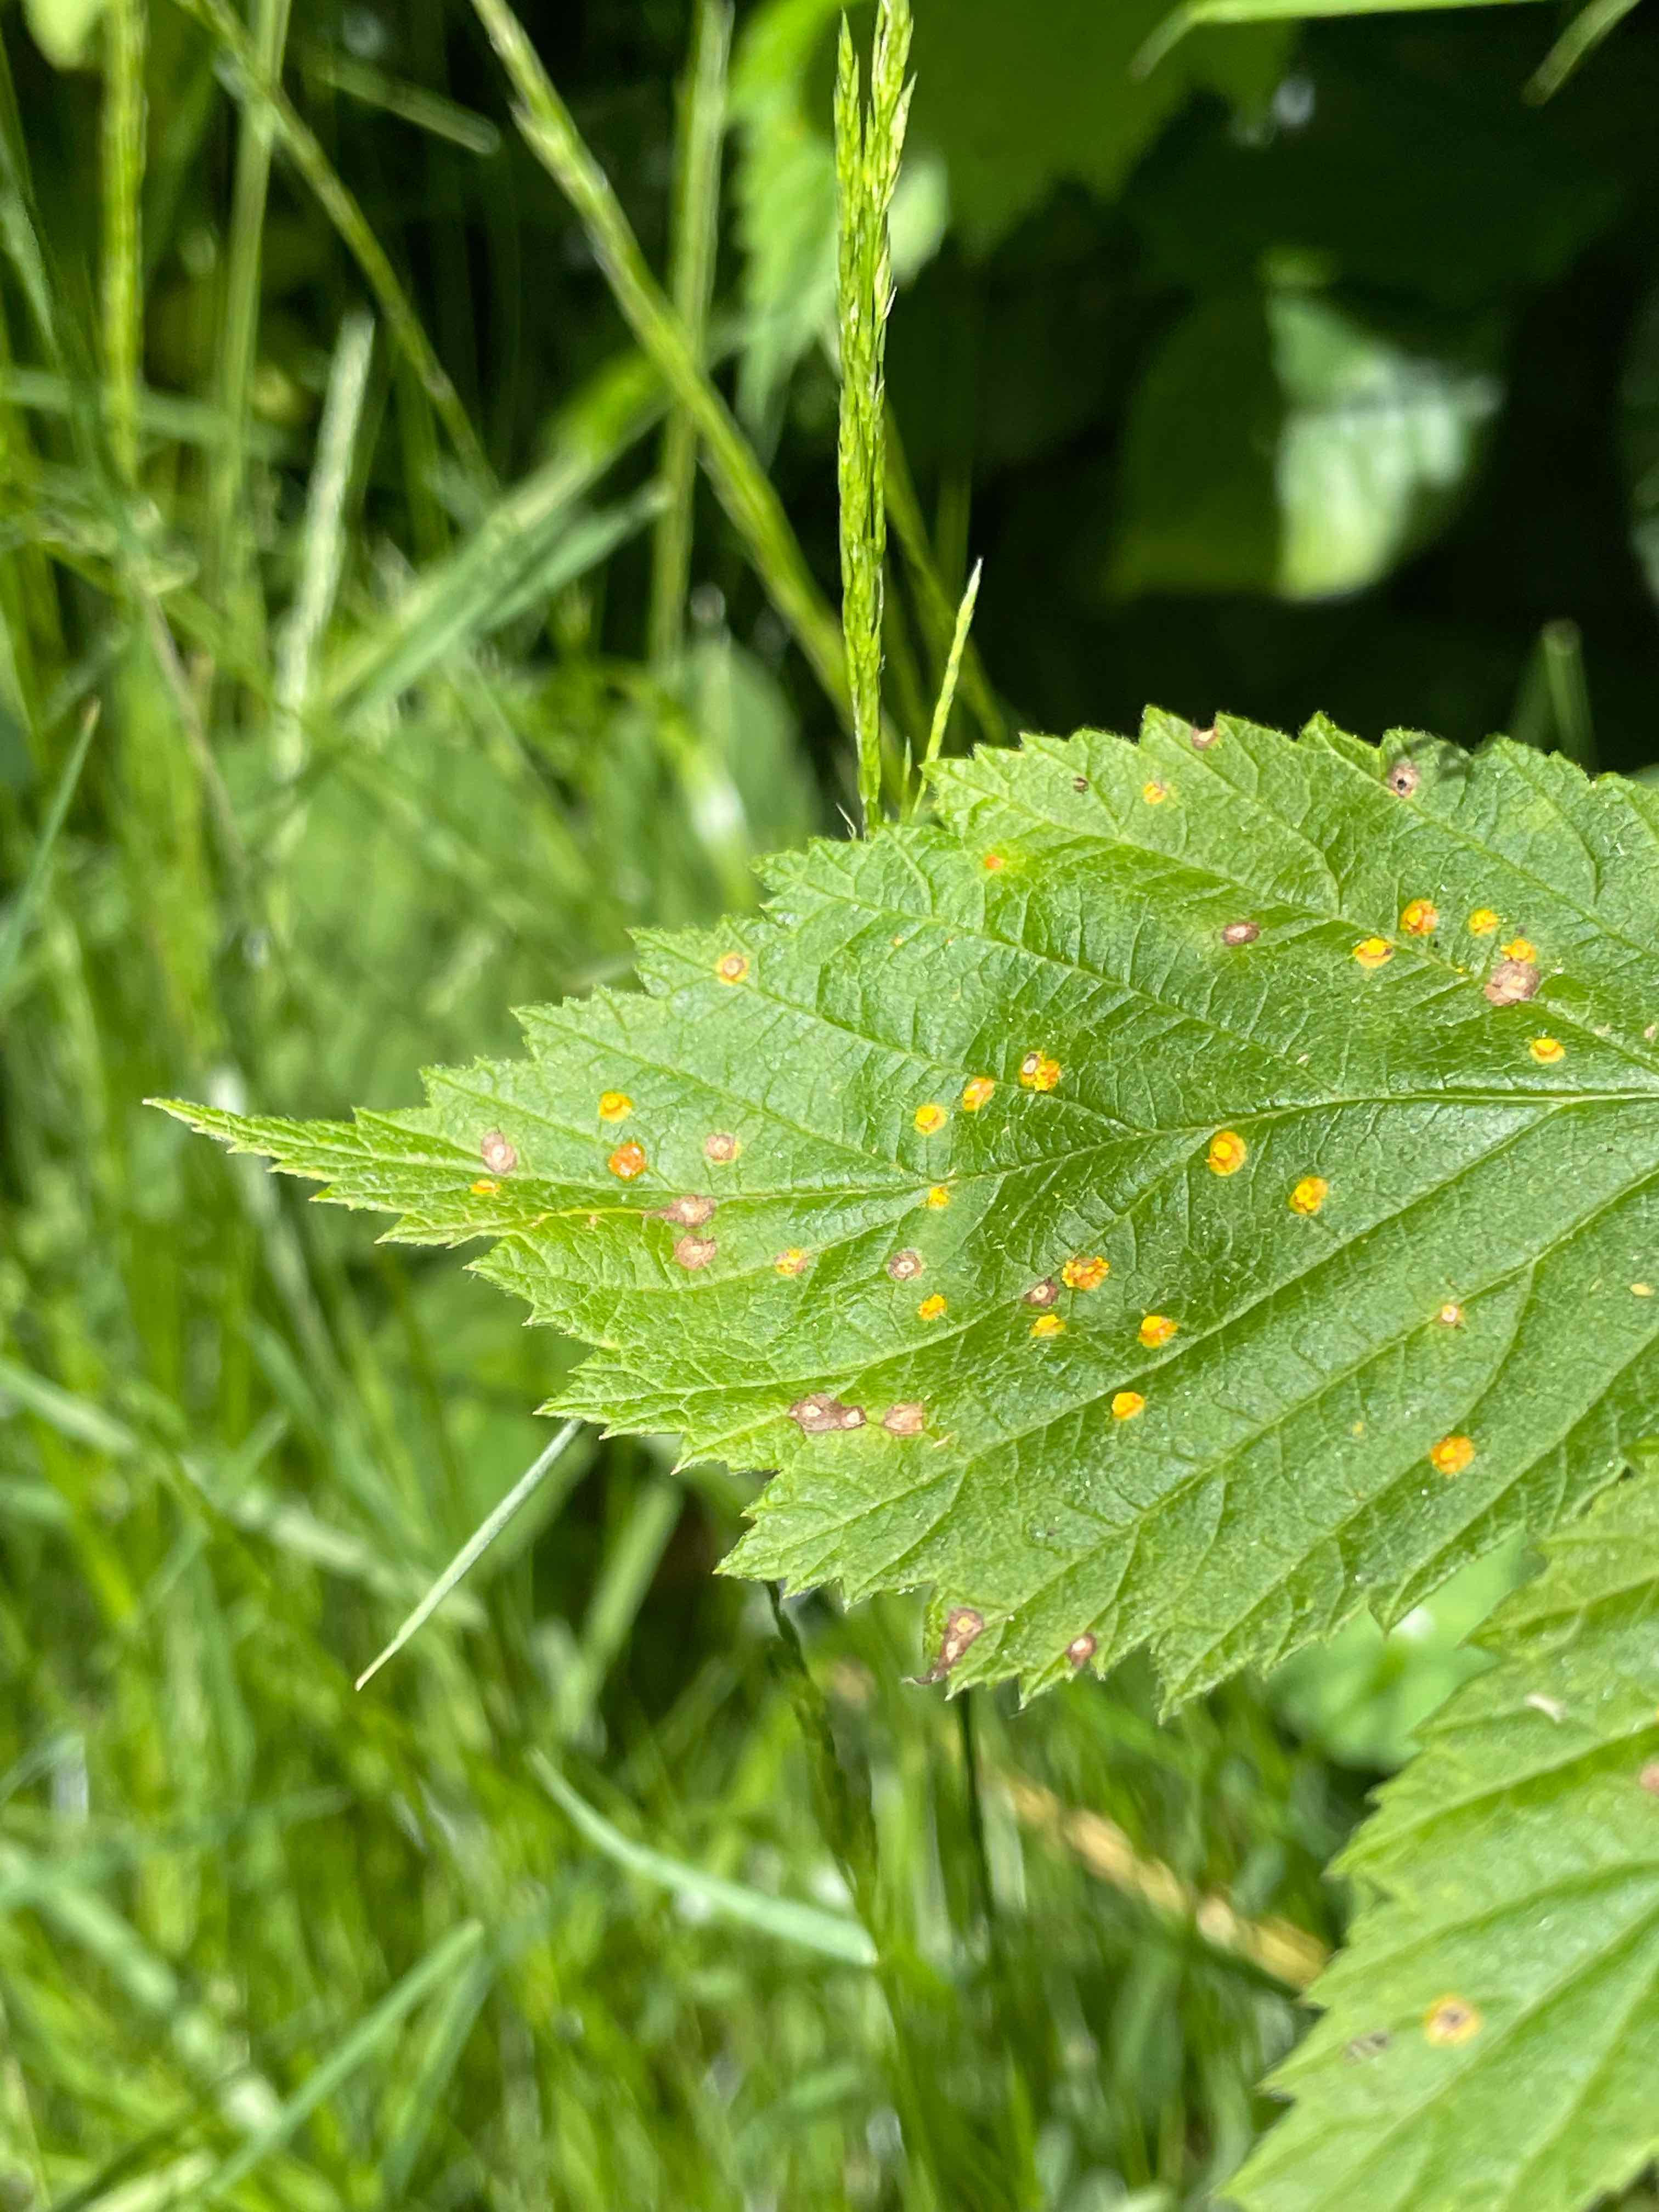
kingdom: Fungi
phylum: Basidiomycota
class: Pucciniomycetes
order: Pucciniales
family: Phragmidiaceae
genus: Phragmidium
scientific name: Phragmidium rubi-idaei
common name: hindbær-flercellerust
